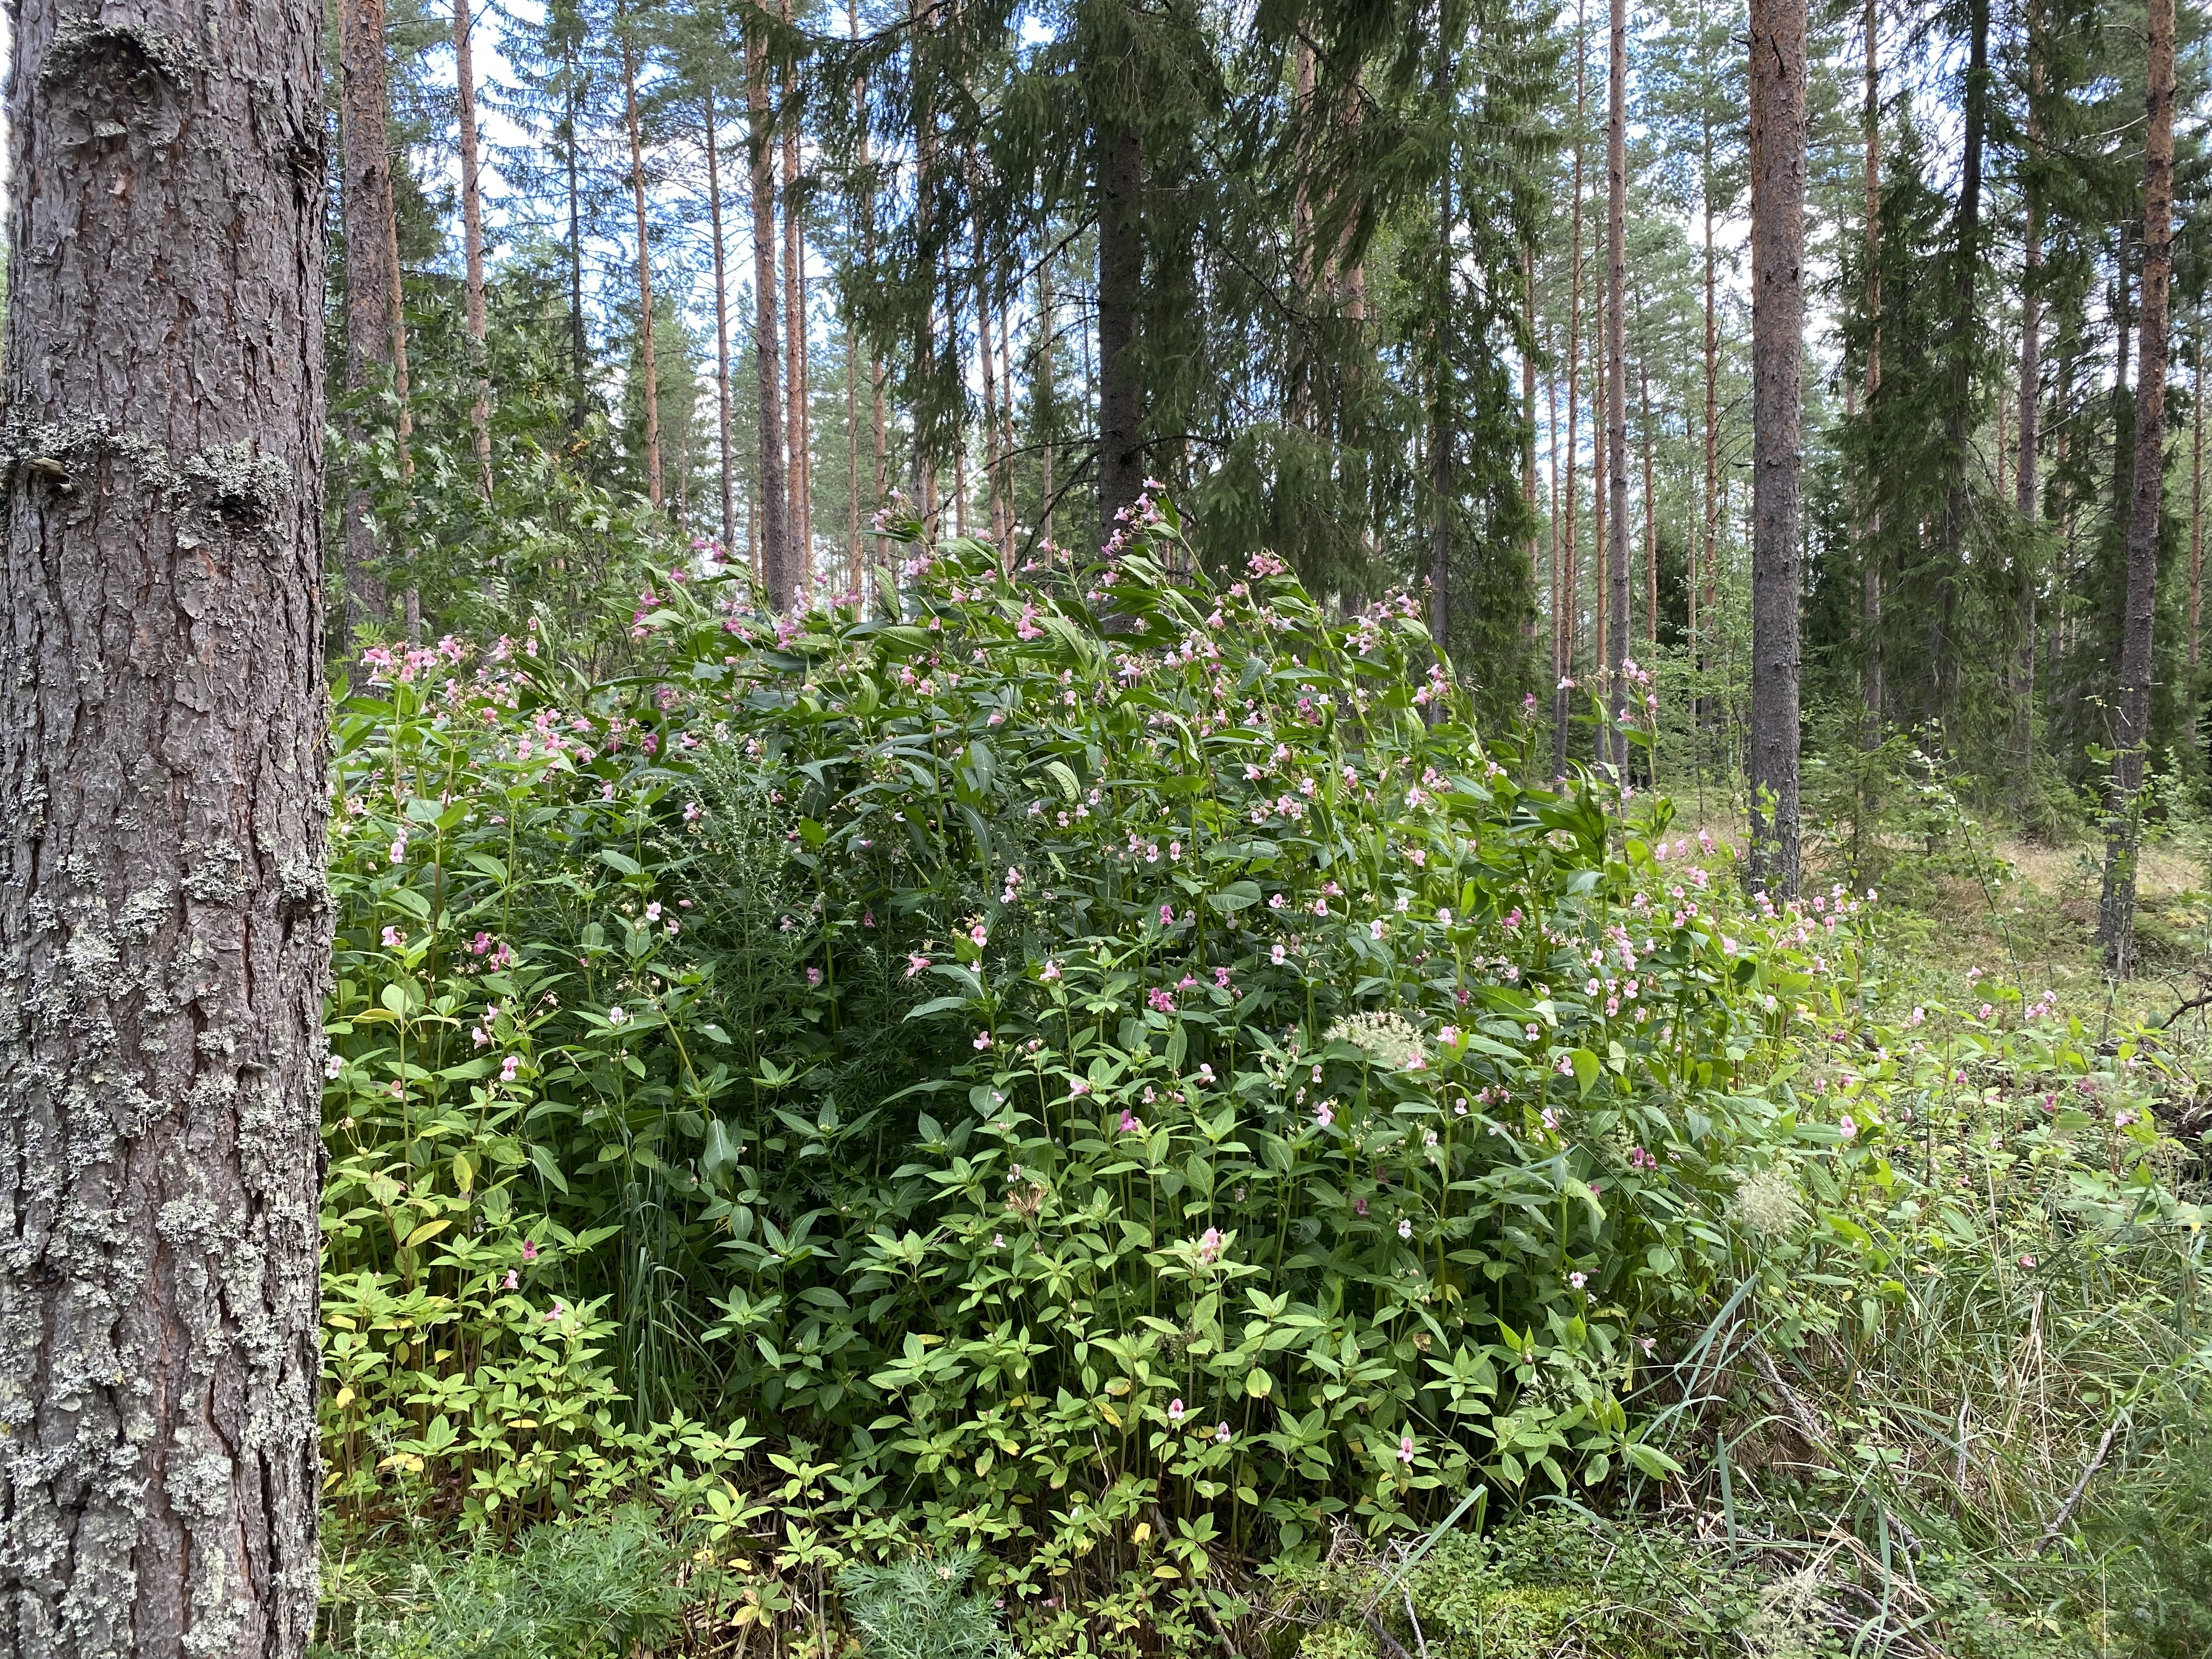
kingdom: Plantae
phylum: Tracheophyta
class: Magnoliopsida
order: Ericales
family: Balsaminaceae
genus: Impatiens
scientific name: Impatiens glandulifera
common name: Himalayan balsam
